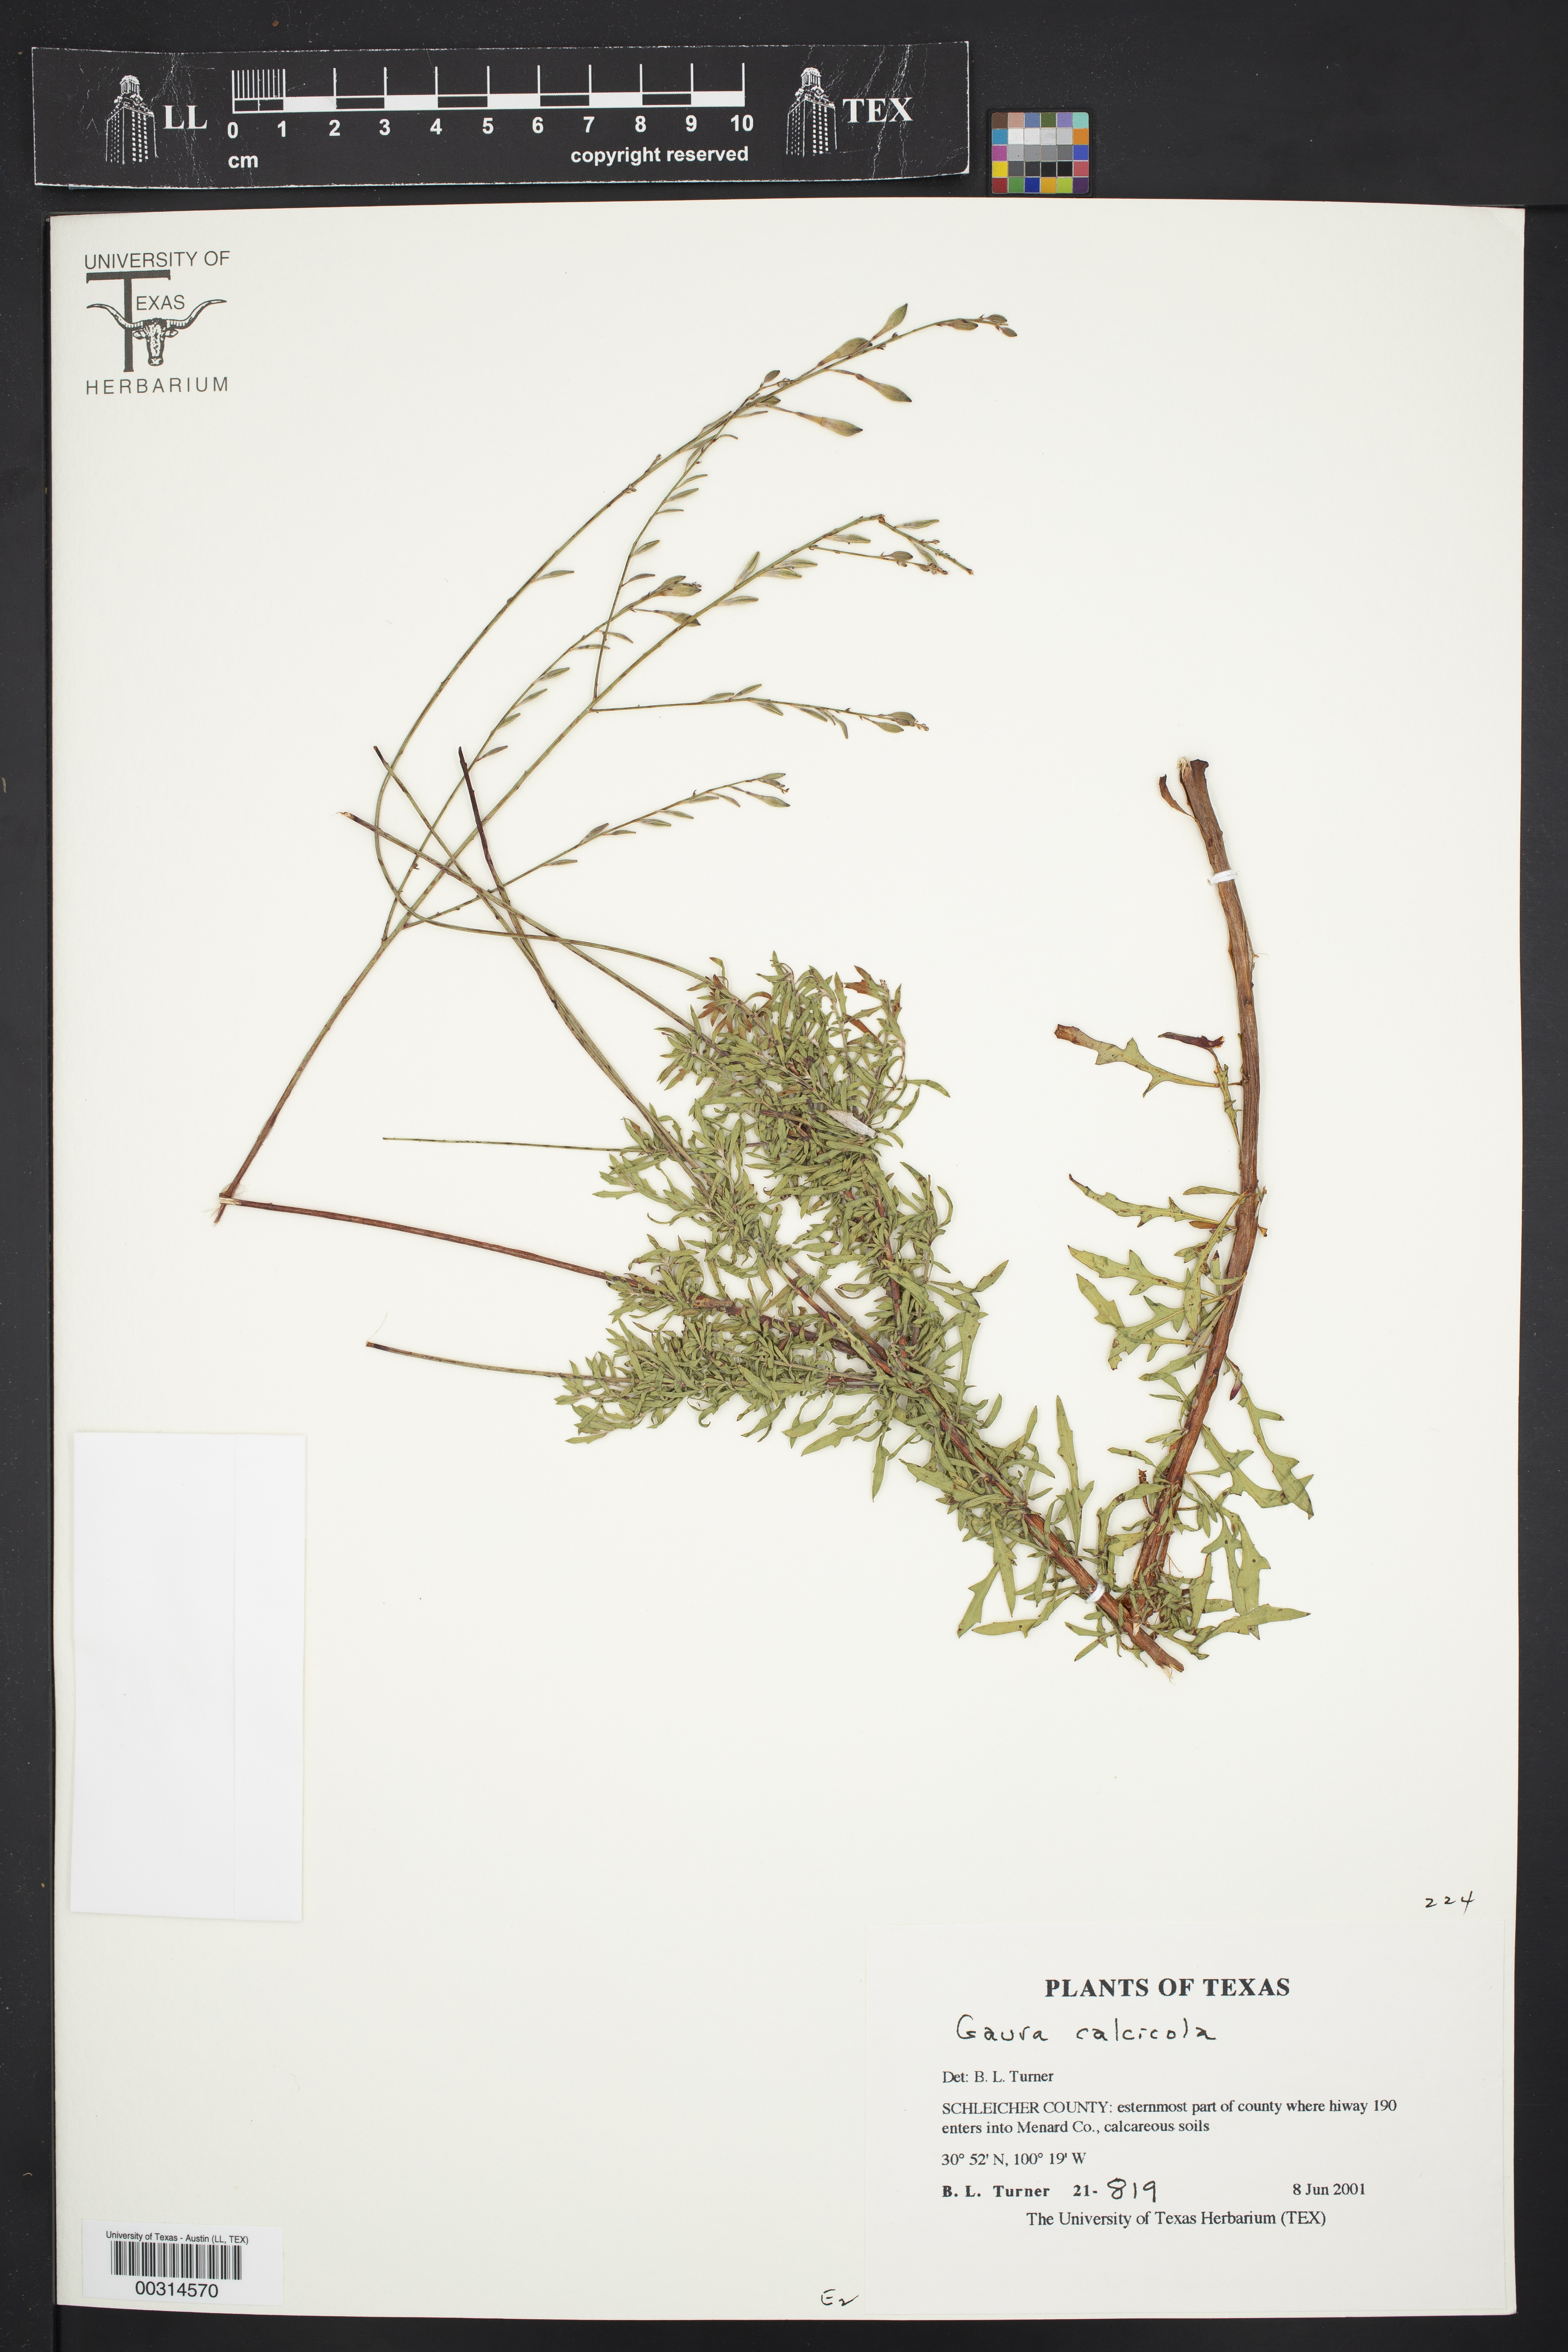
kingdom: Plantae
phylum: Tracheophyta
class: Magnoliopsida
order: Myrtales
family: Onagraceae
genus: Oenothera
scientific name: Oenothera calcicola
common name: Texas beeblossom
